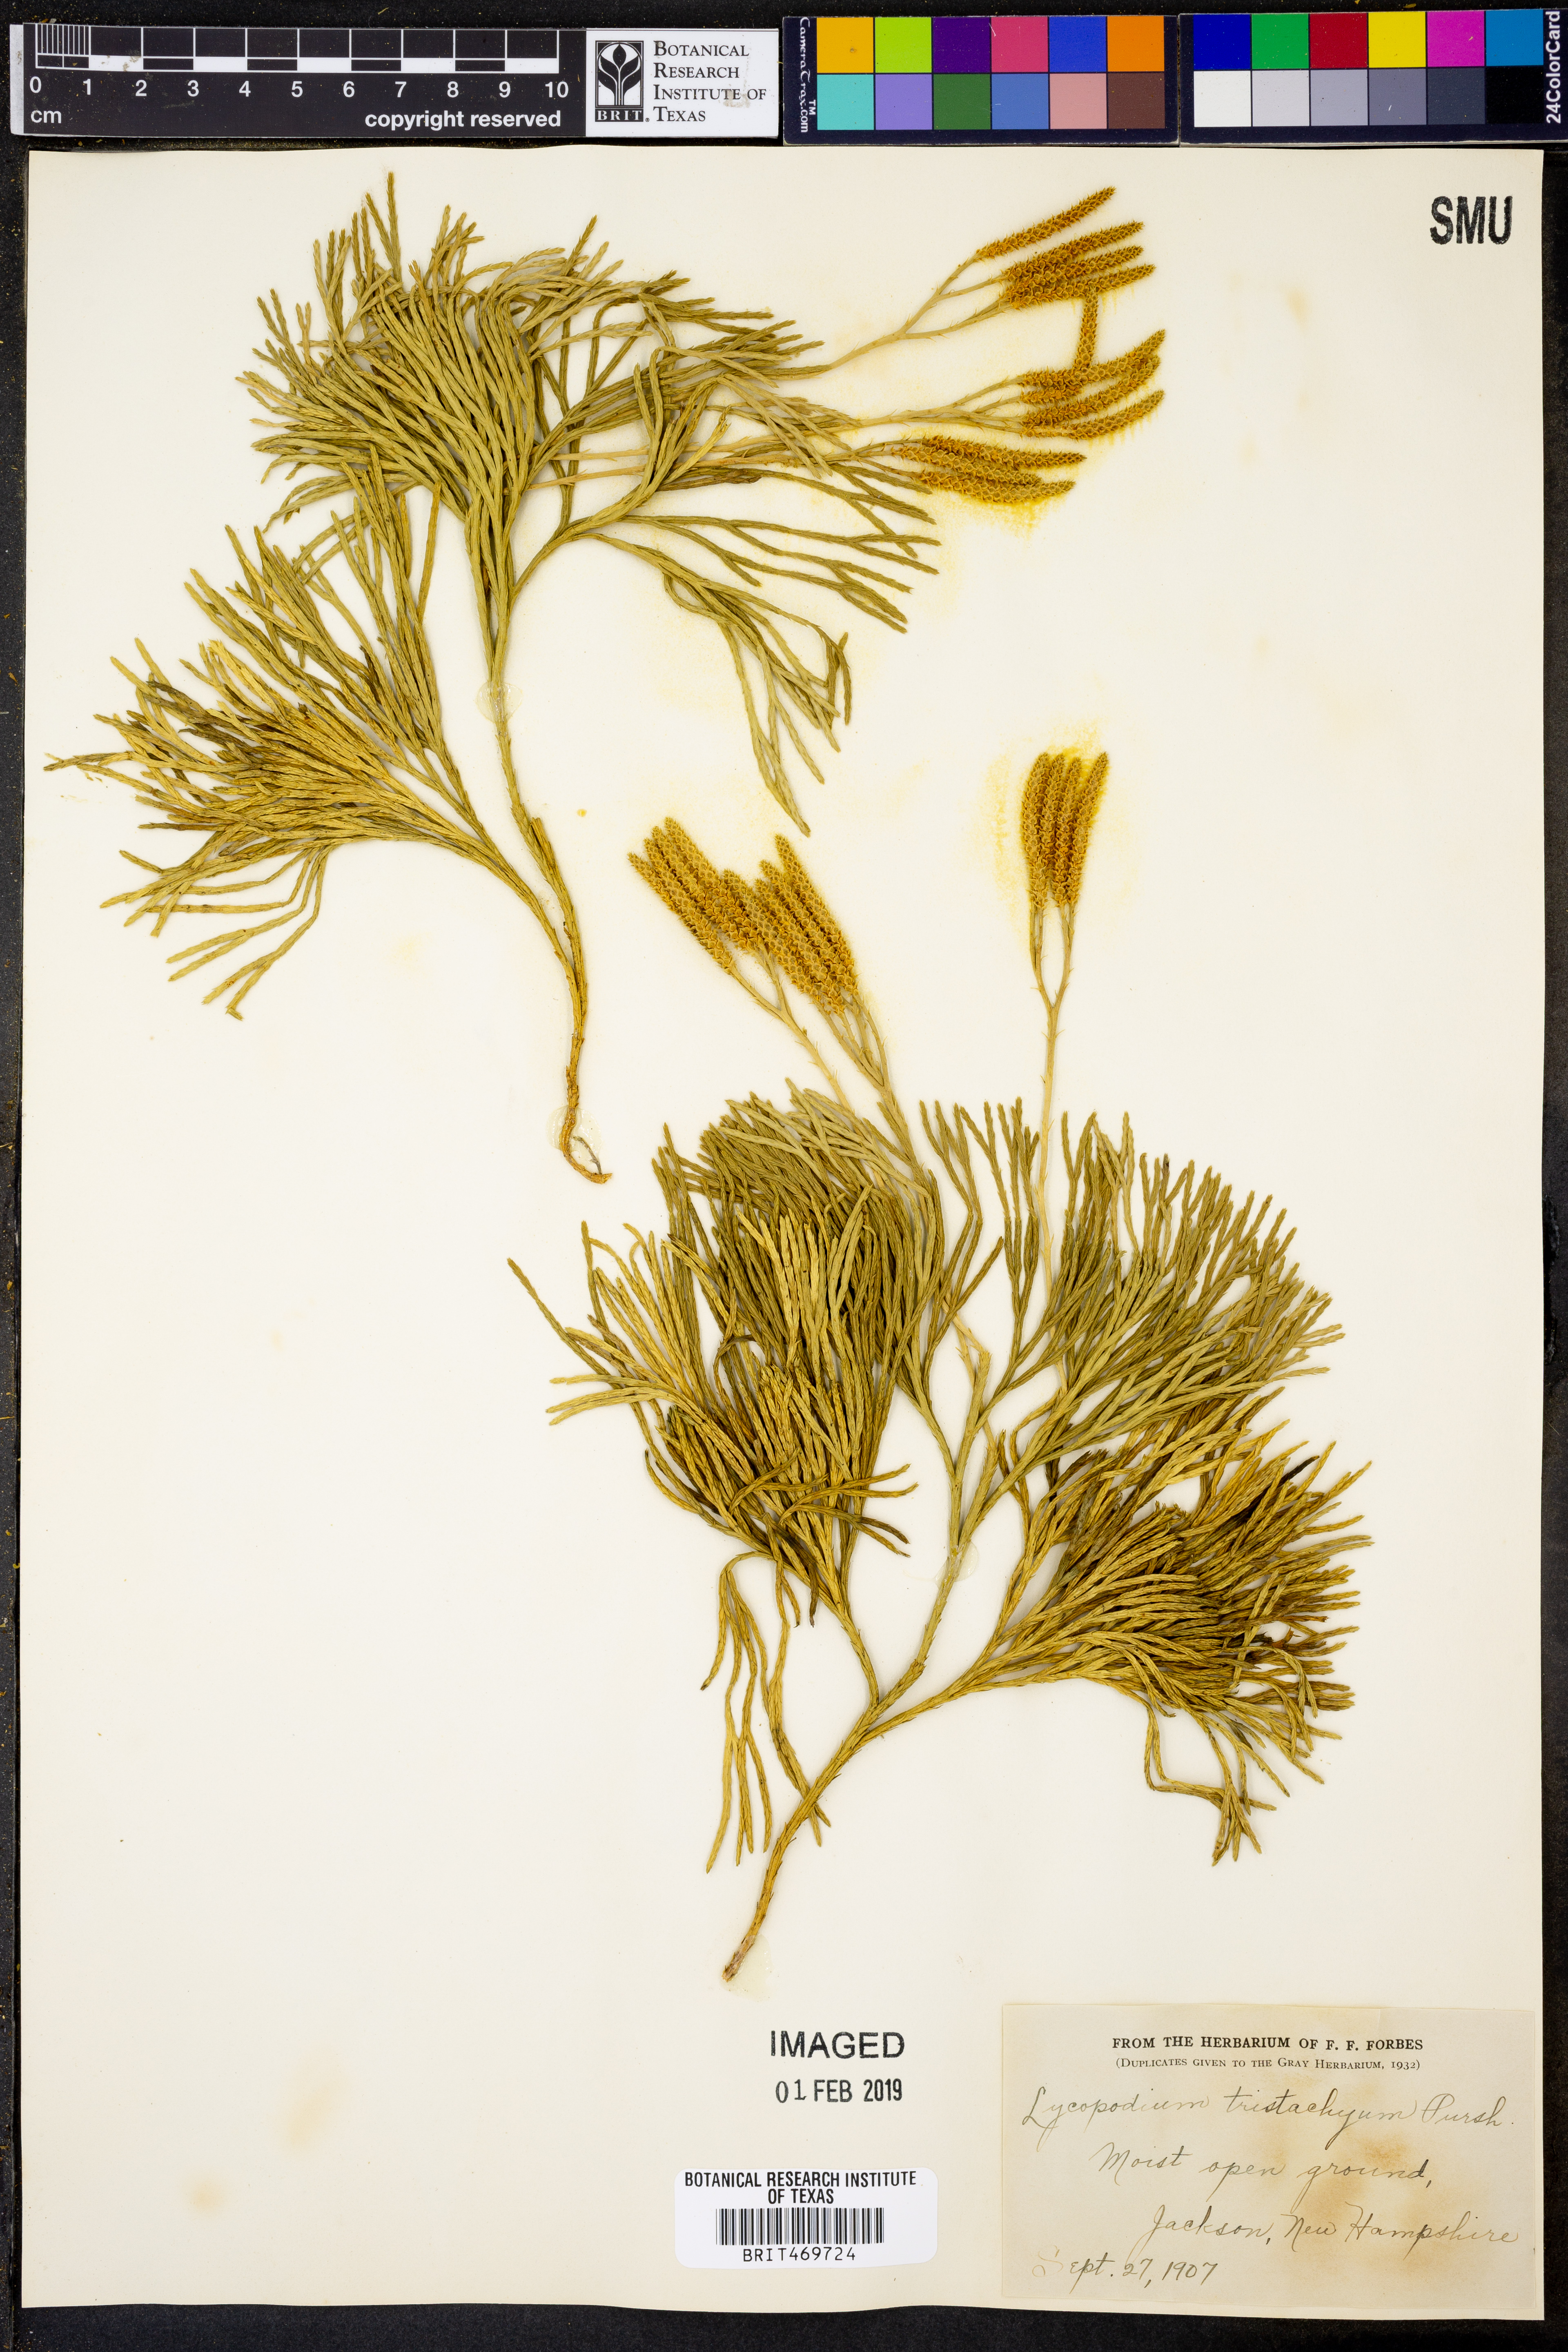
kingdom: Plantae
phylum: Tracheophyta
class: Lycopodiopsida
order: Lycopodiales
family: Lycopodiaceae
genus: Diphasiastrum
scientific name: Diphasiastrum tristachyum
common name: Blue ground-cedar
